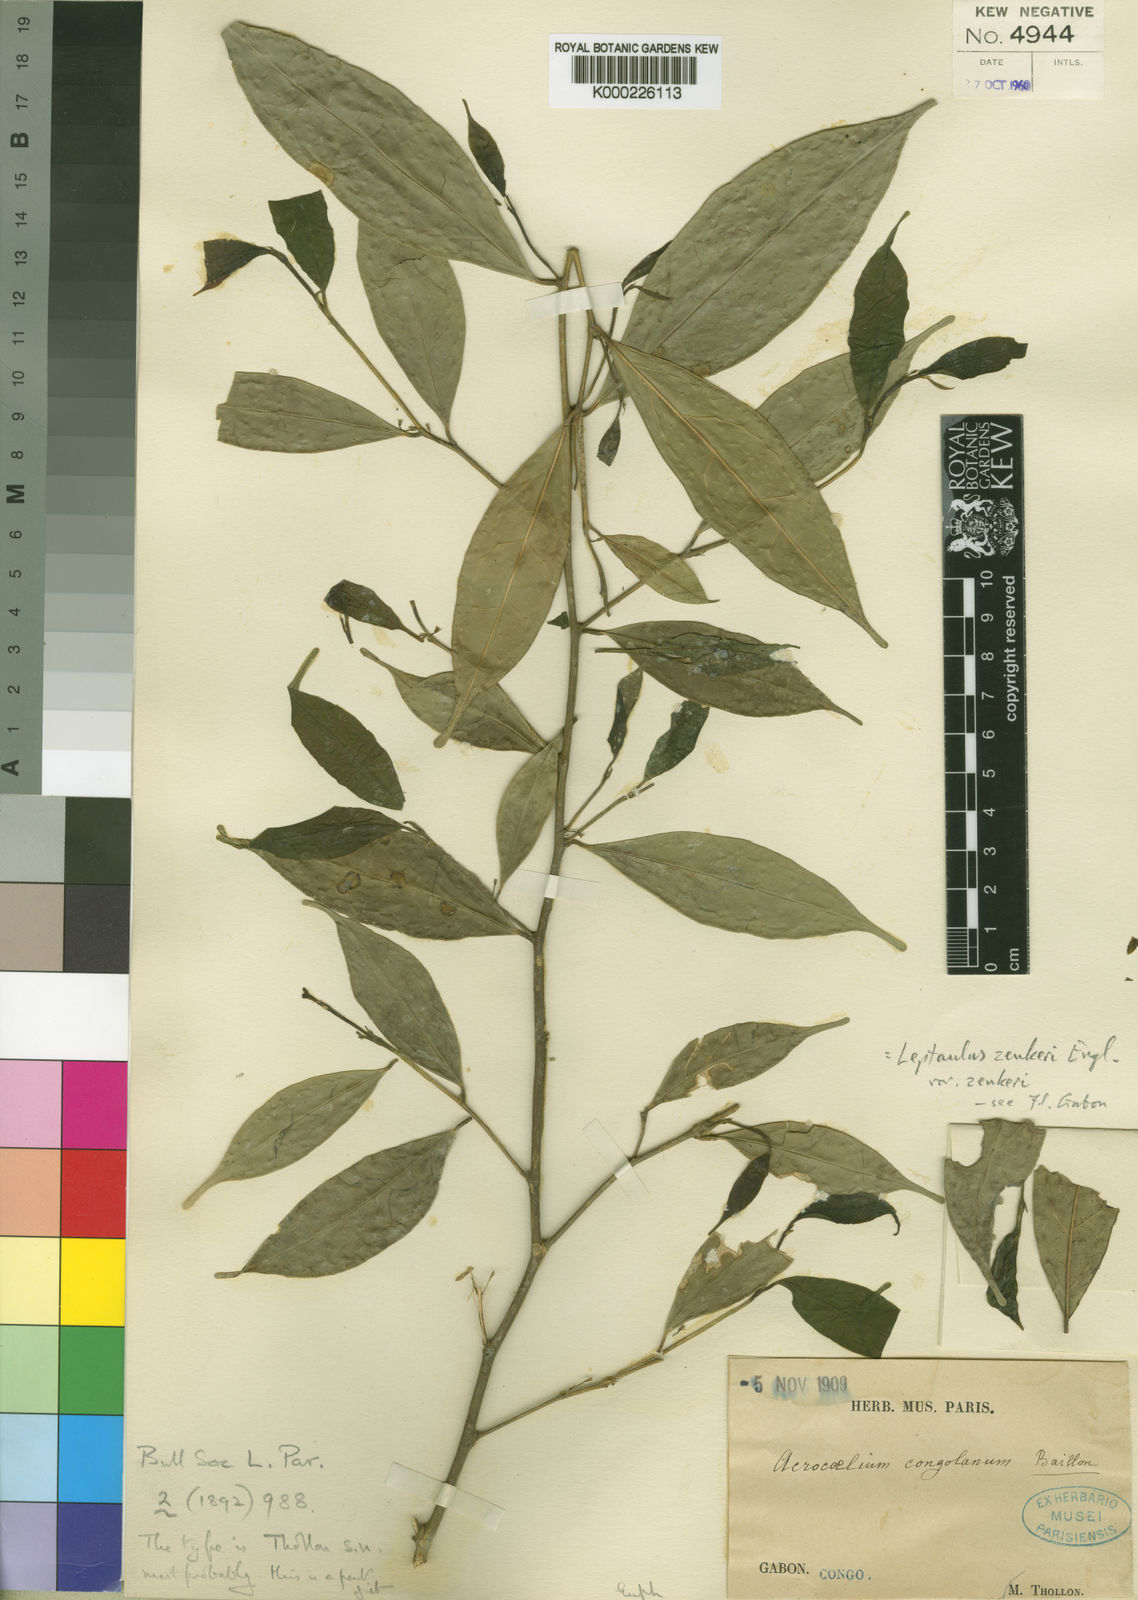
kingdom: Plantae
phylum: Tracheophyta
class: Magnoliopsida
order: Cardiopteridales
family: Cardiopteridaceae
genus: Leptaulus
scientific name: Leptaulus congolanus
